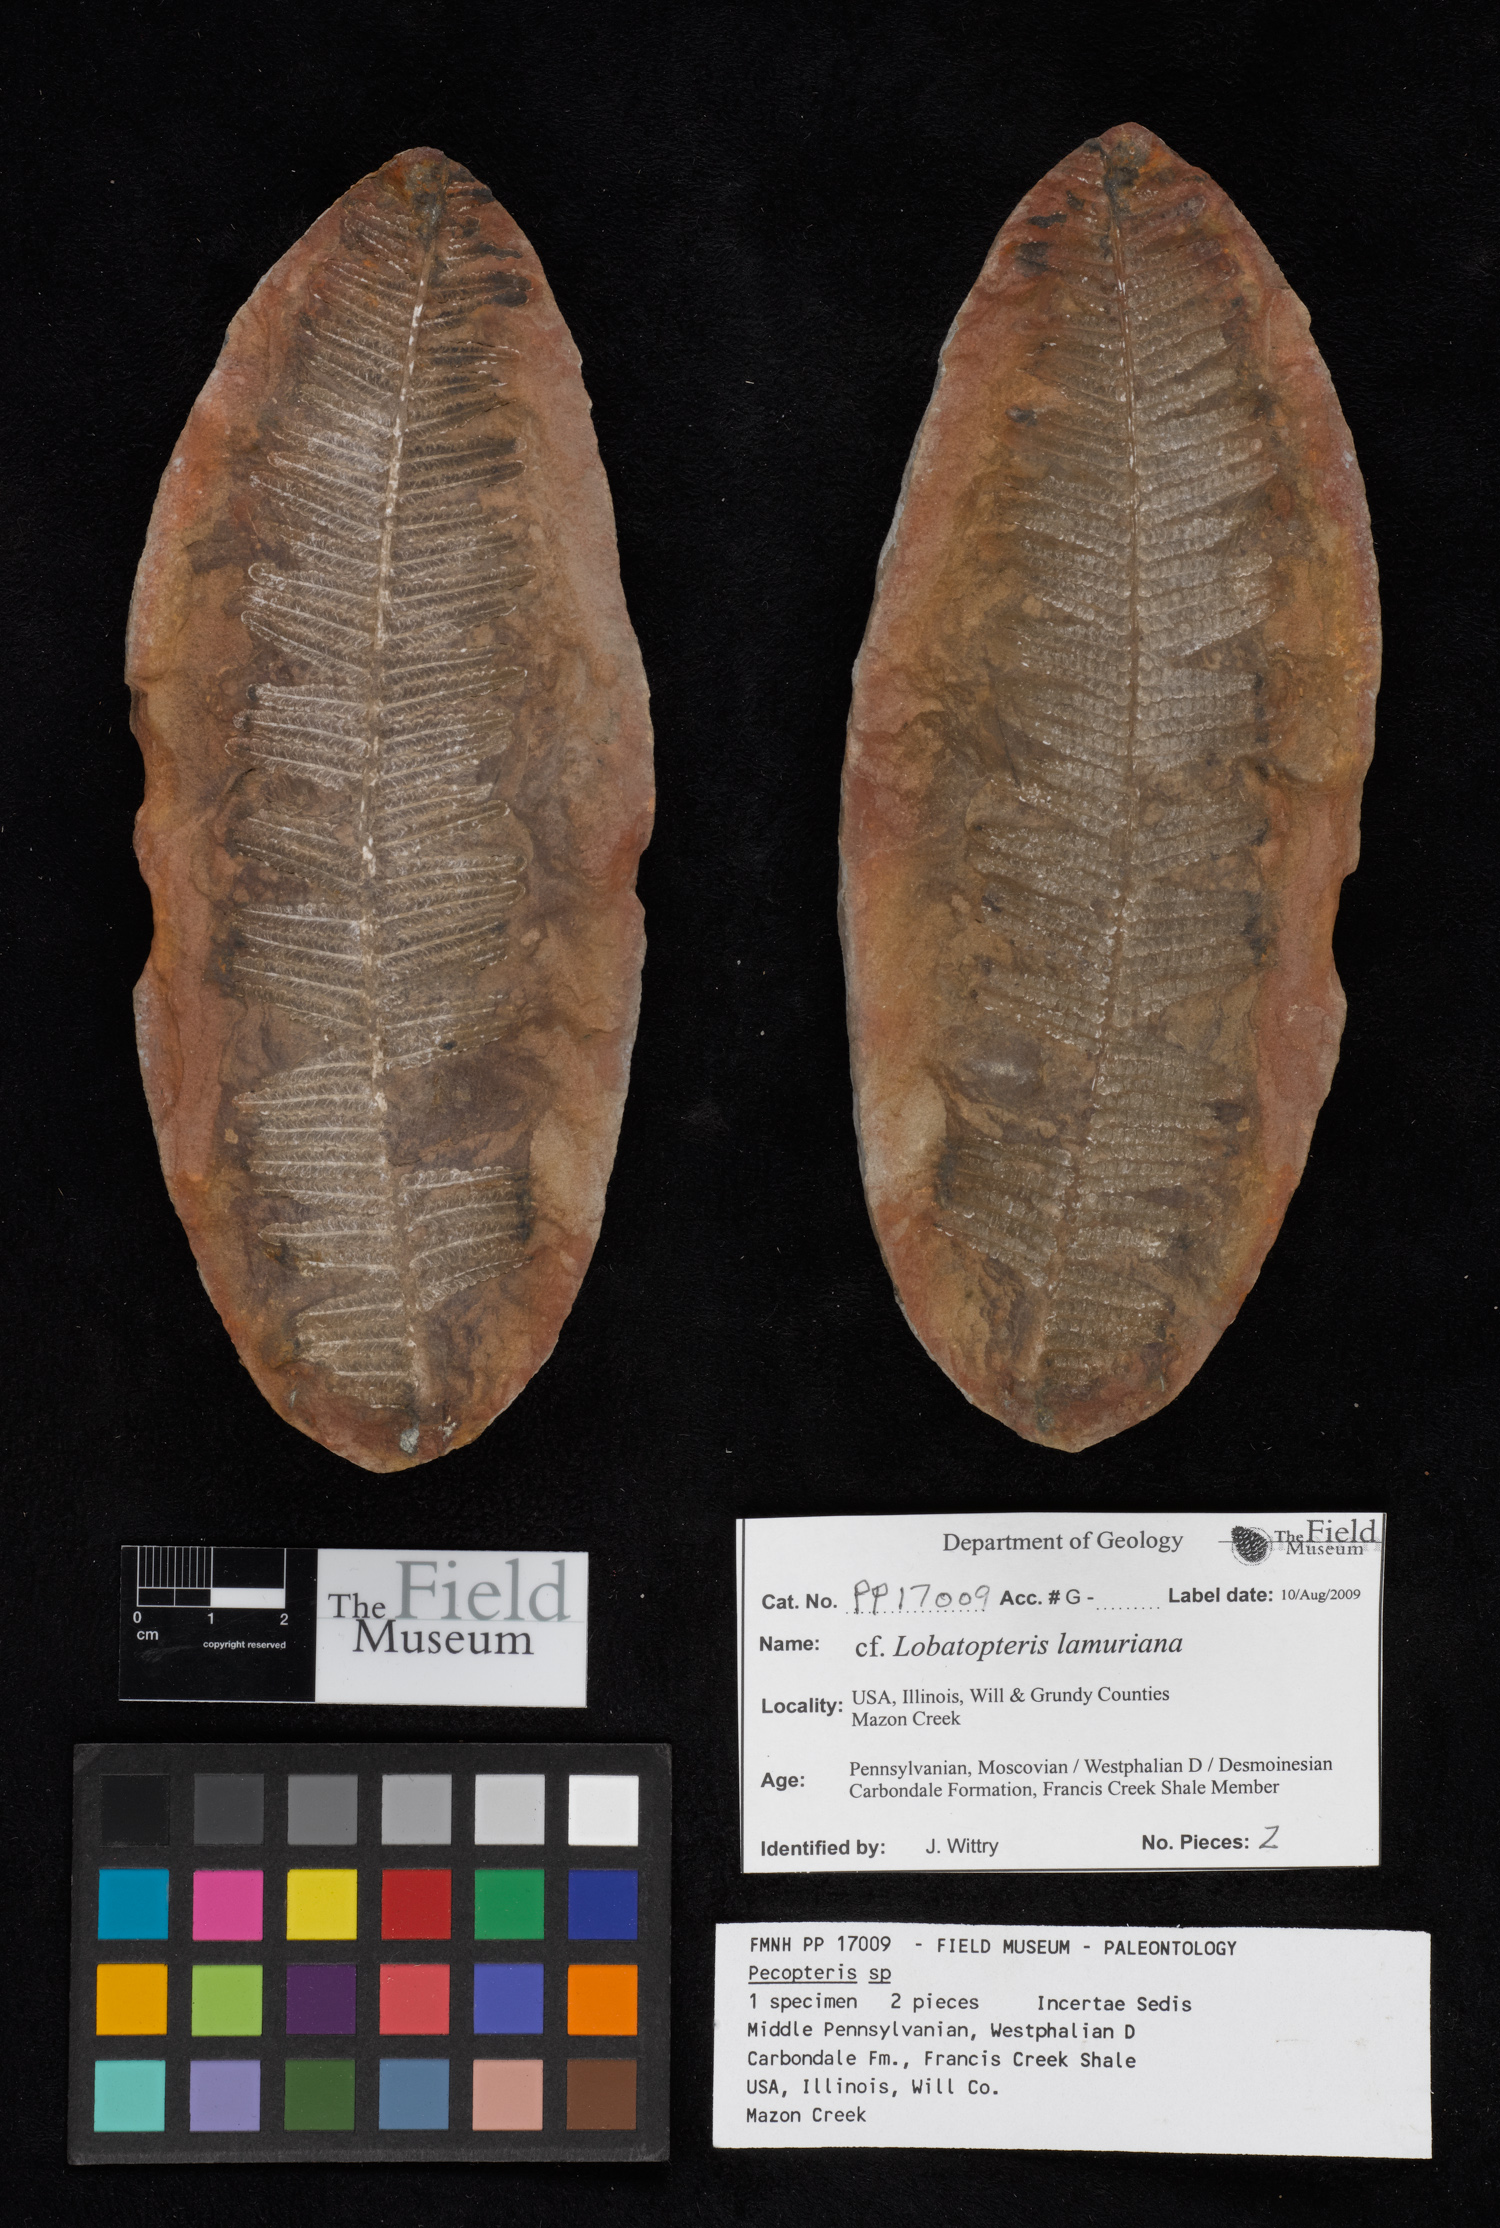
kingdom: Plantae
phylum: Tracheophyta
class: Polypodiopsida
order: Marattiales
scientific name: Marattiales
